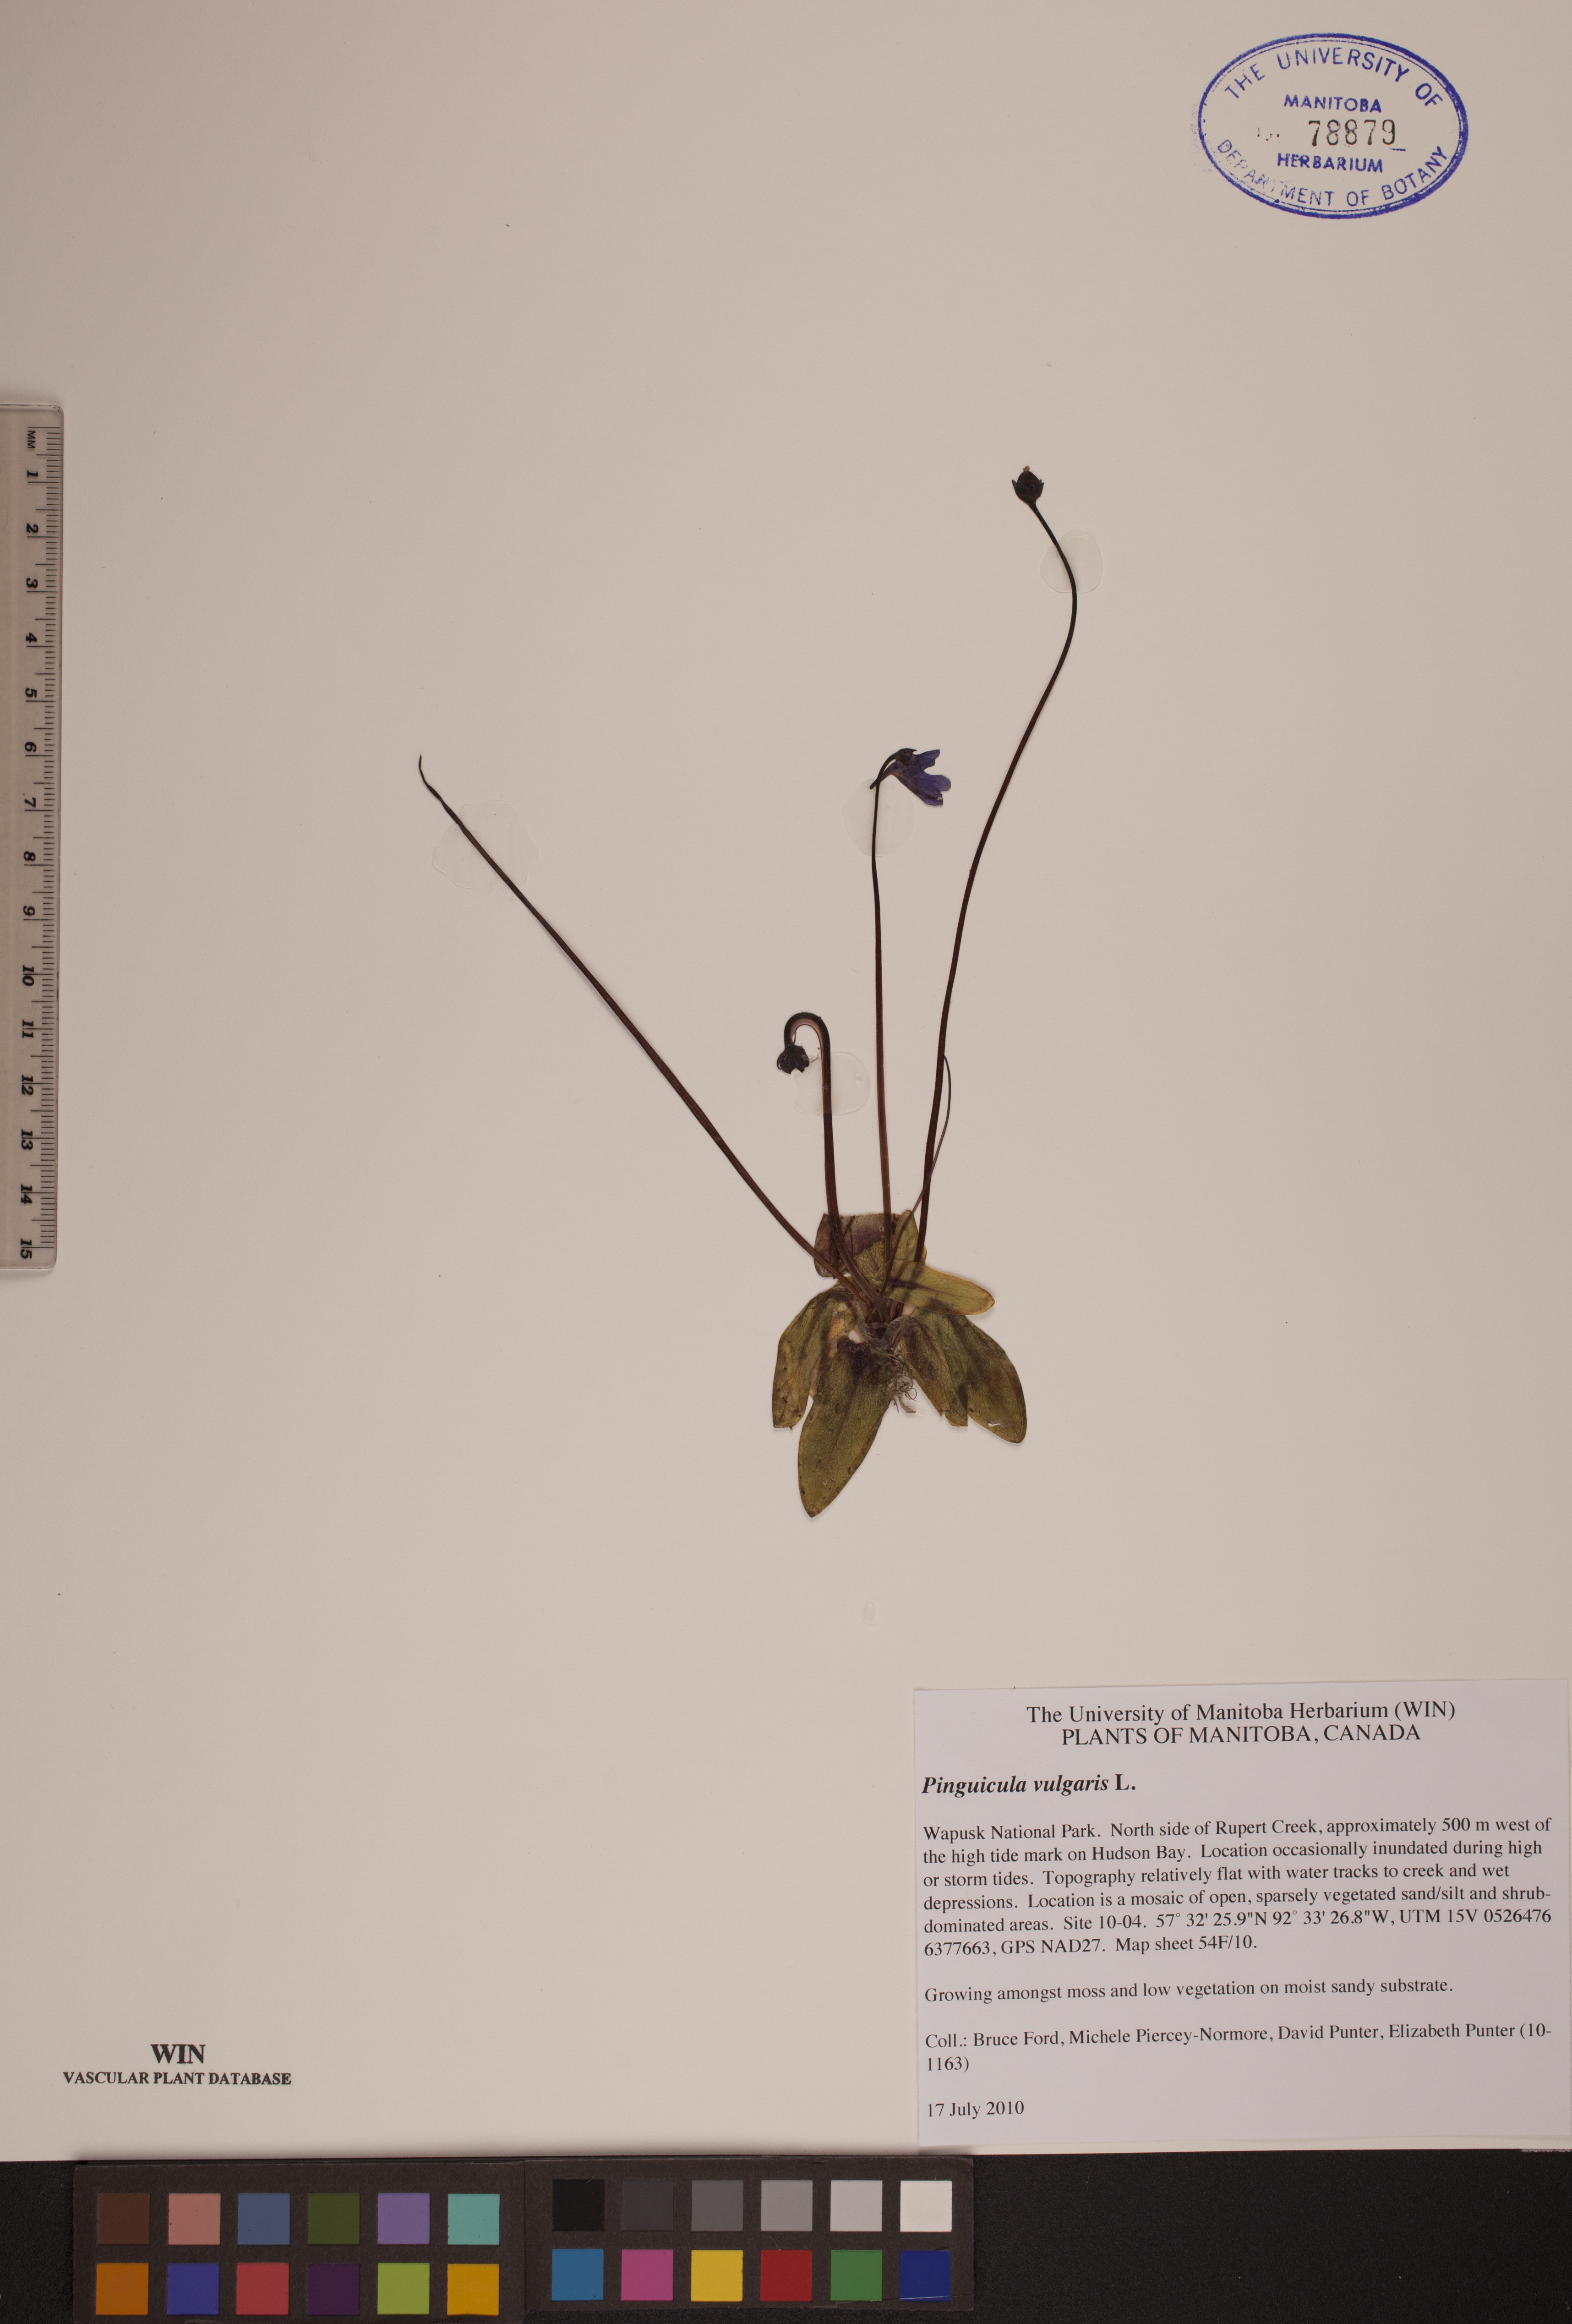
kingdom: Plantae
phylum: Tracheophyta
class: Magnoliopsida
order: Lamiales
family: Lentibulariaceae
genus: Pinguicula
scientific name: Pinguicula vulgaris
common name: Common butterwort
